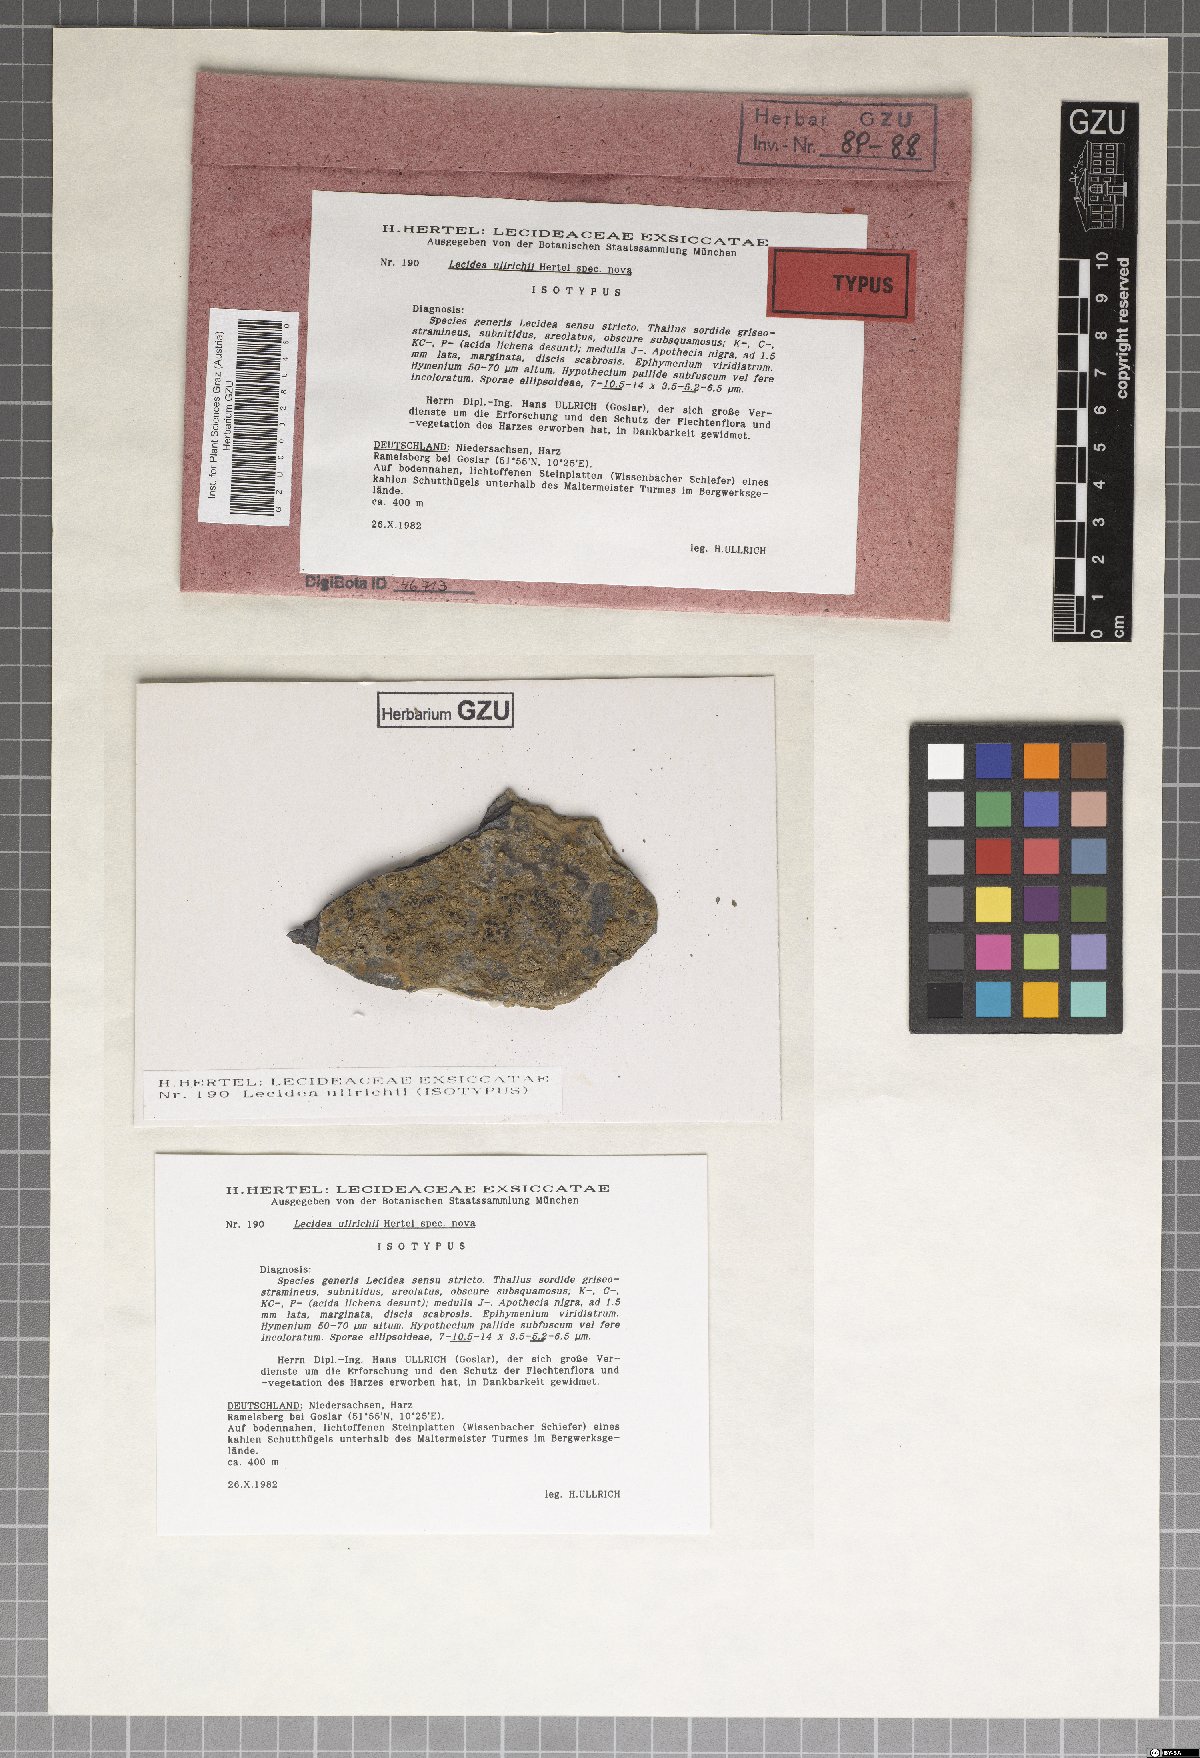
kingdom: Fungi
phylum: Ascomycota
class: Lecanoromycetes
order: Lecideales
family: Lecideaceae
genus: Lecidea
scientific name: Lecidea ullrichii
